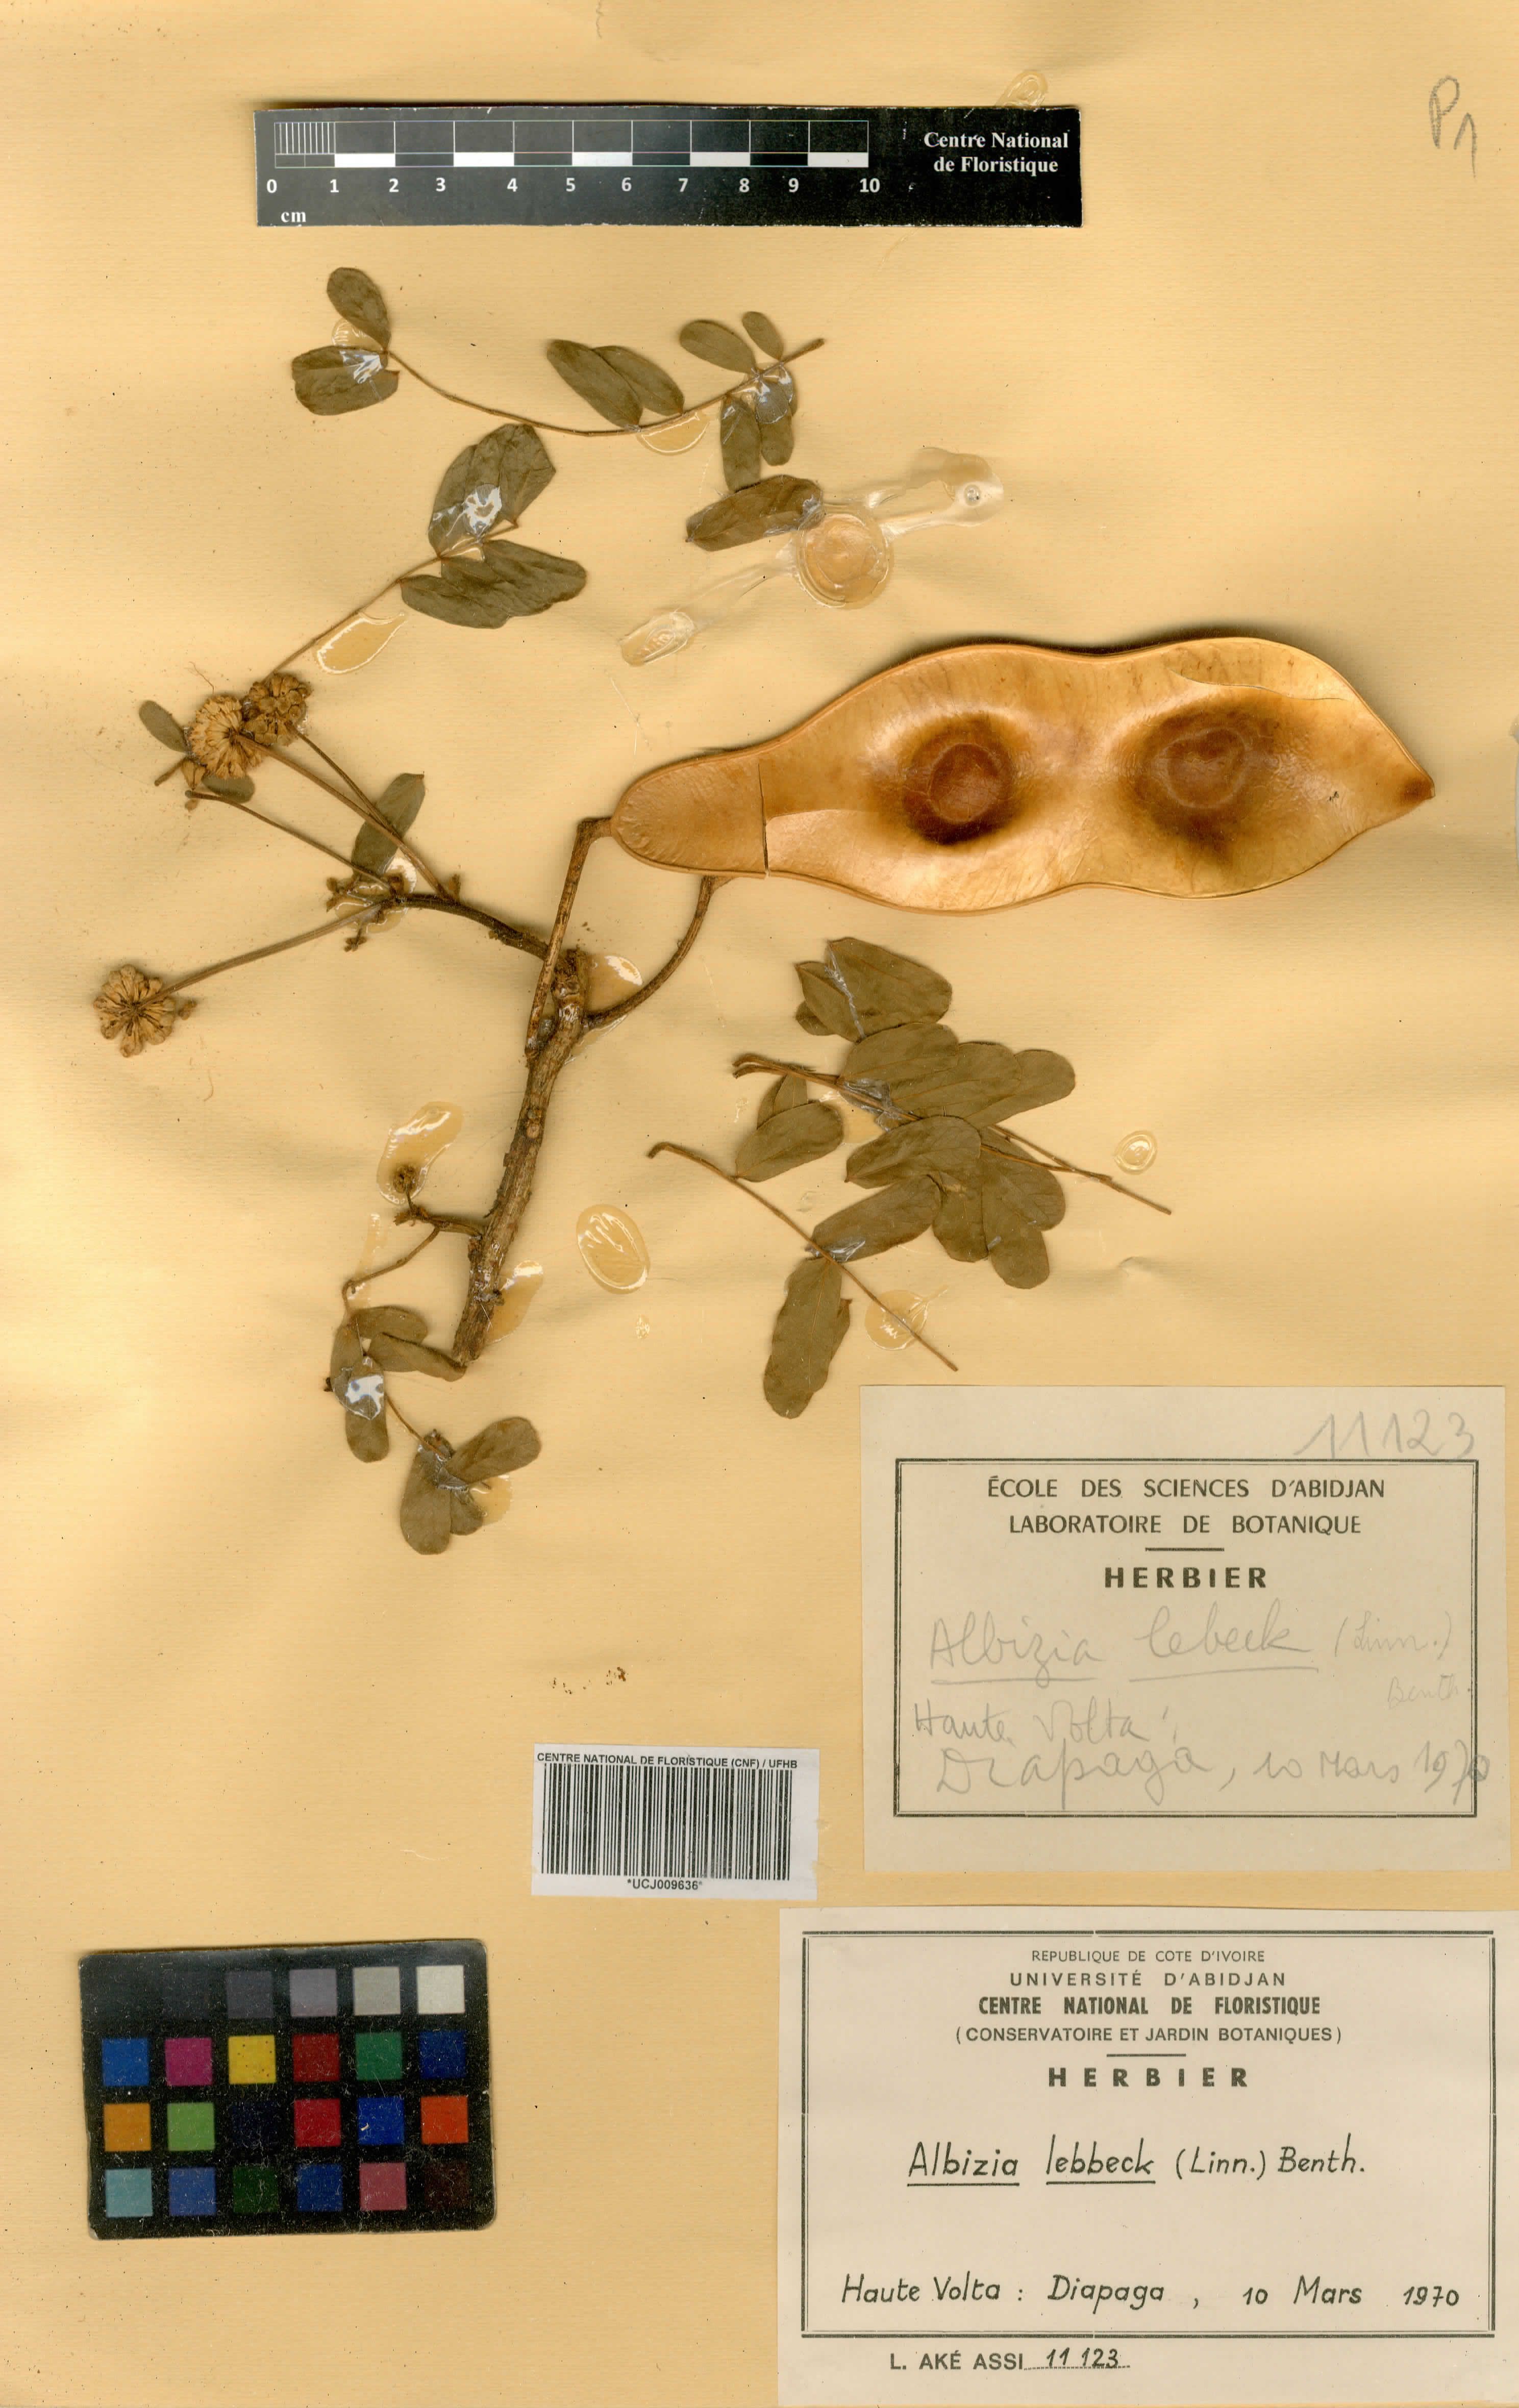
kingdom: Plantae
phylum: Tracheophyta
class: Magnoliopsida
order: Fabales
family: Fabaceae
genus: Albizia
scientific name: Albizia lebbeck
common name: Woman's tongue
